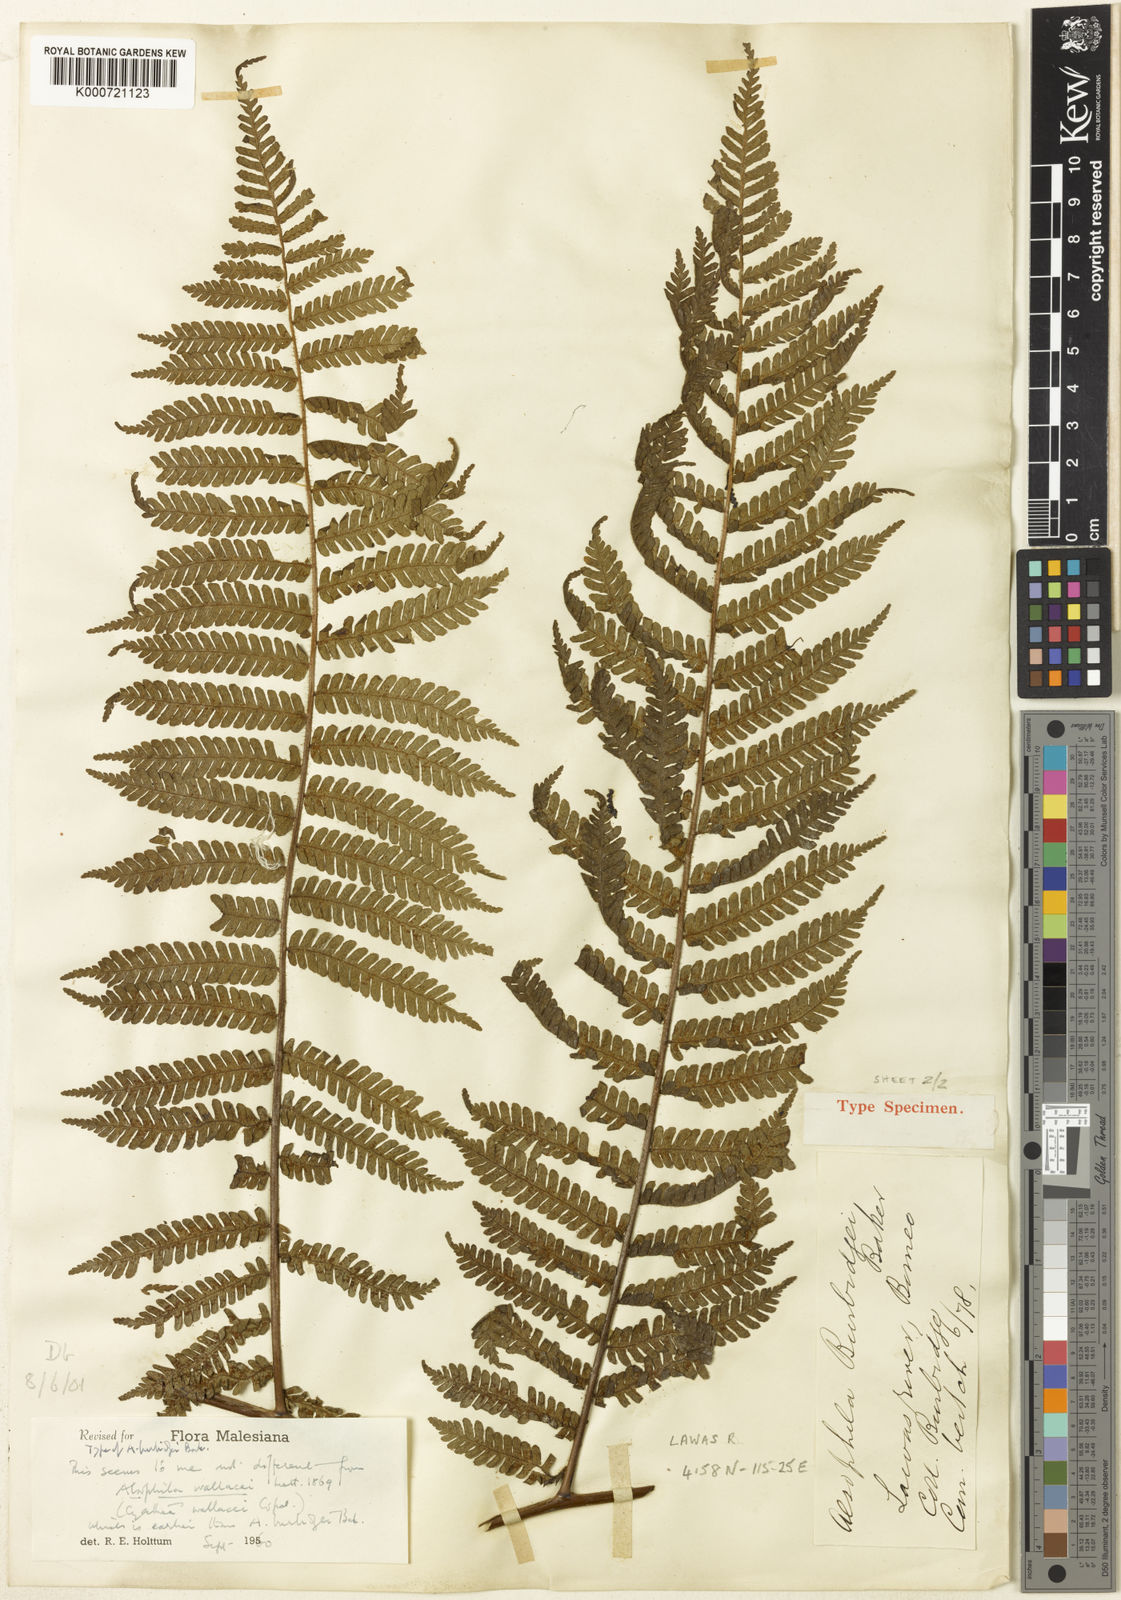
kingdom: Plantae
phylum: Tracheophyta
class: Polypodiopsida
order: Cyatheales
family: Cyatheaceae
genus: Sphaeropteris
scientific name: Sphaeropteris wallacei
